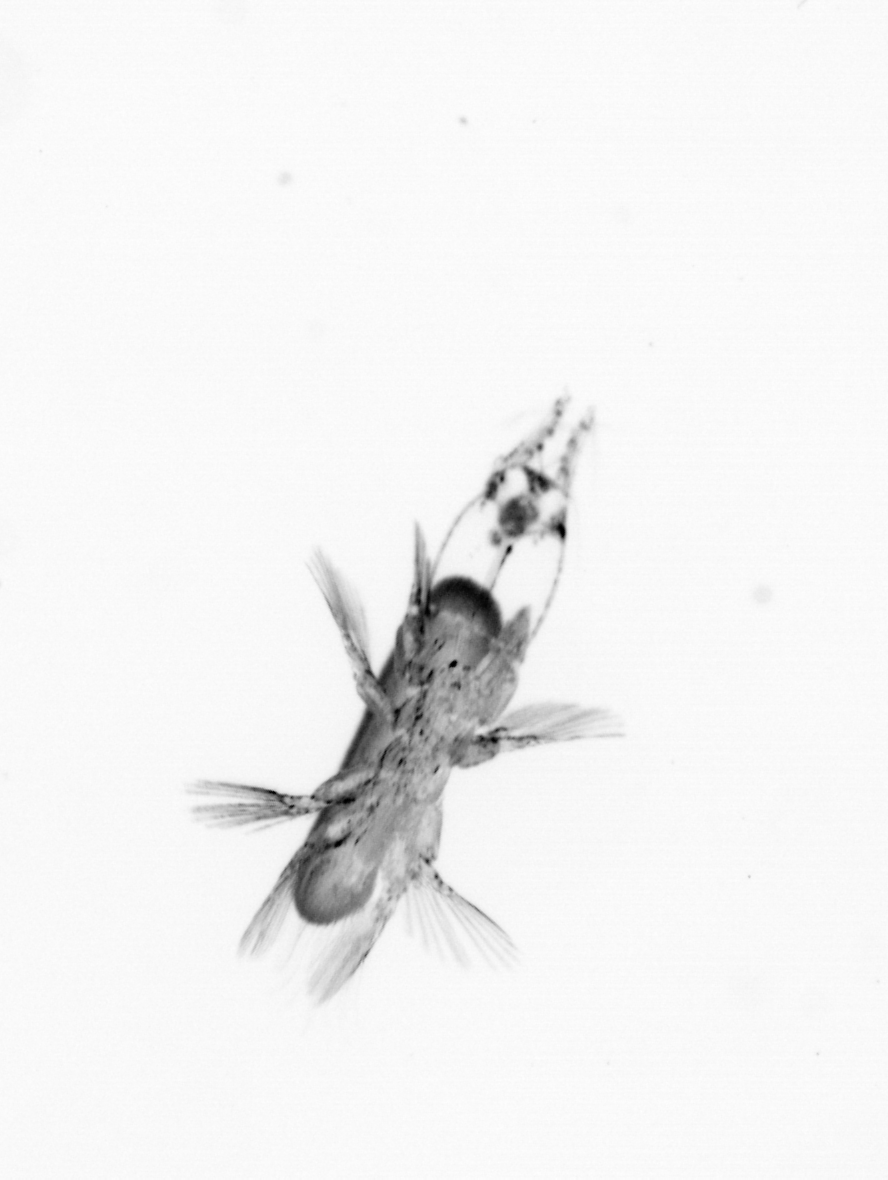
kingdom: Animalia
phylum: Arthropoda
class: Copepoda
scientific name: Copepoda
